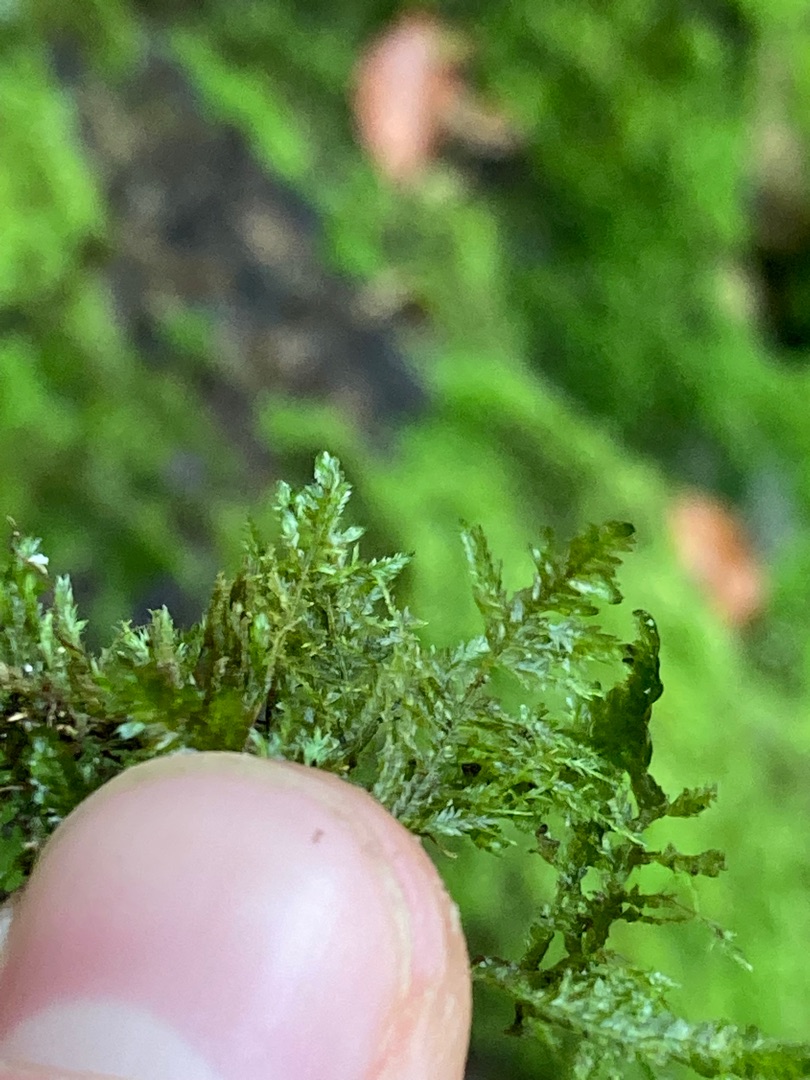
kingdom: Plantae
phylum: Bryophyta
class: Bryopsida
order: Hypnales
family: Neckeraceae
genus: Alleniella
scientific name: Alleniella complanata
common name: Almindelig fladmos
